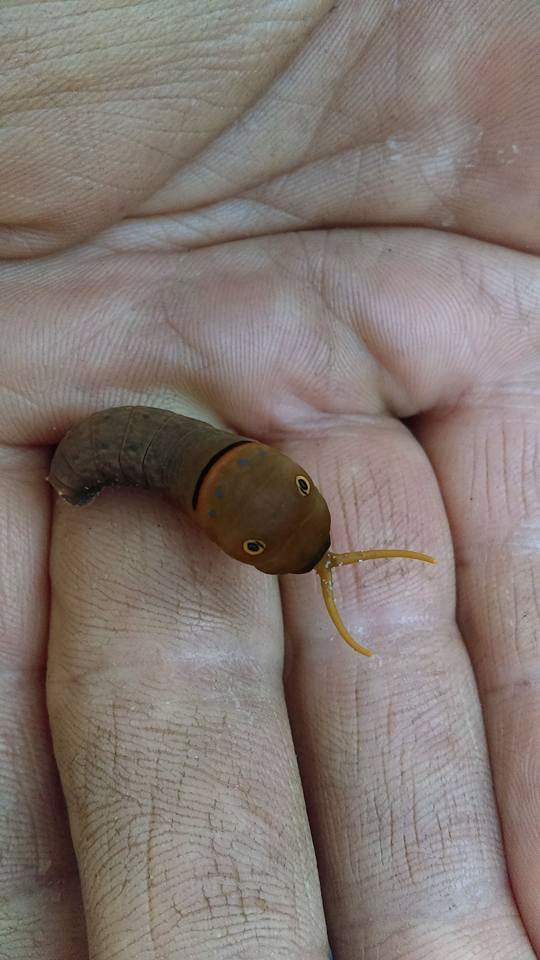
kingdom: Animalia
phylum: Arthropoda
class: Insecta
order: Lepidoptera
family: Papilionidae
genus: Pterourus
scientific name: Pterourus canadensis
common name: Canadian Tiger Swallowtail
